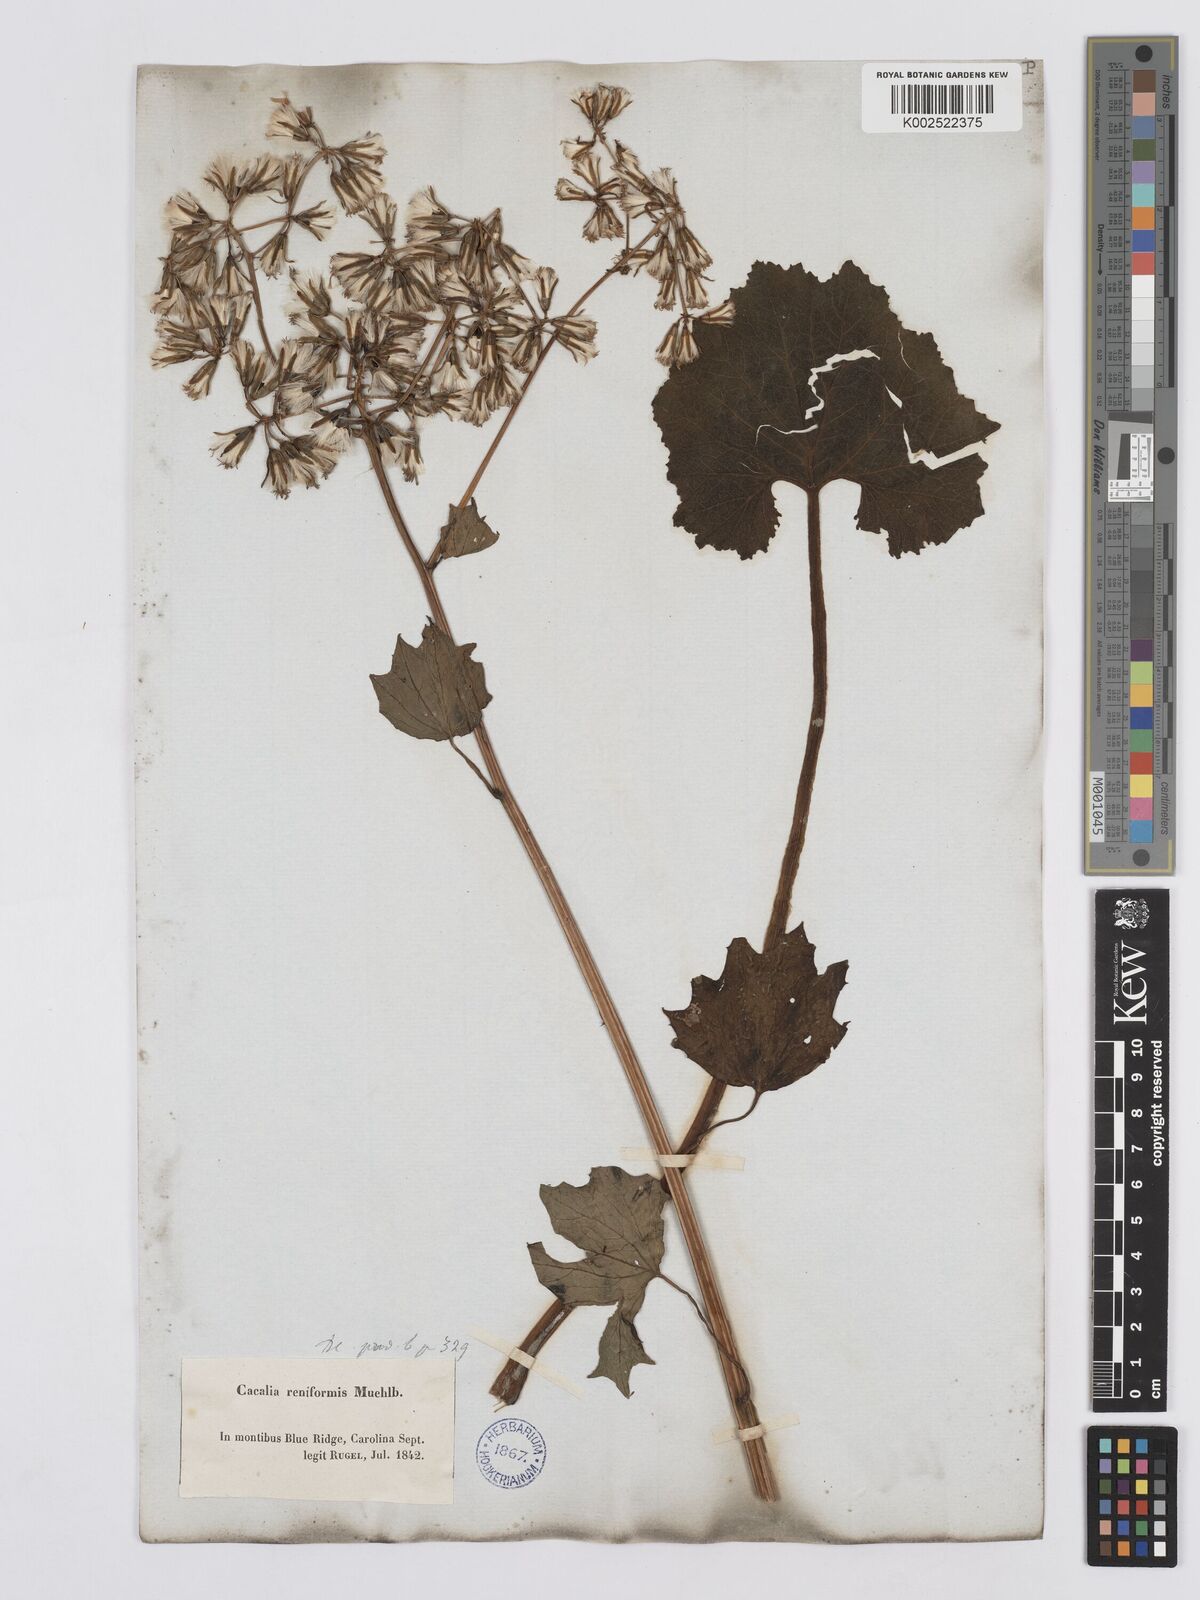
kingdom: Plantae
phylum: Tracheophyta
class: Magnoliopsida
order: Asterales
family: Asteraceae
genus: Arnoglossum
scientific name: Arnoglossum reniforme
